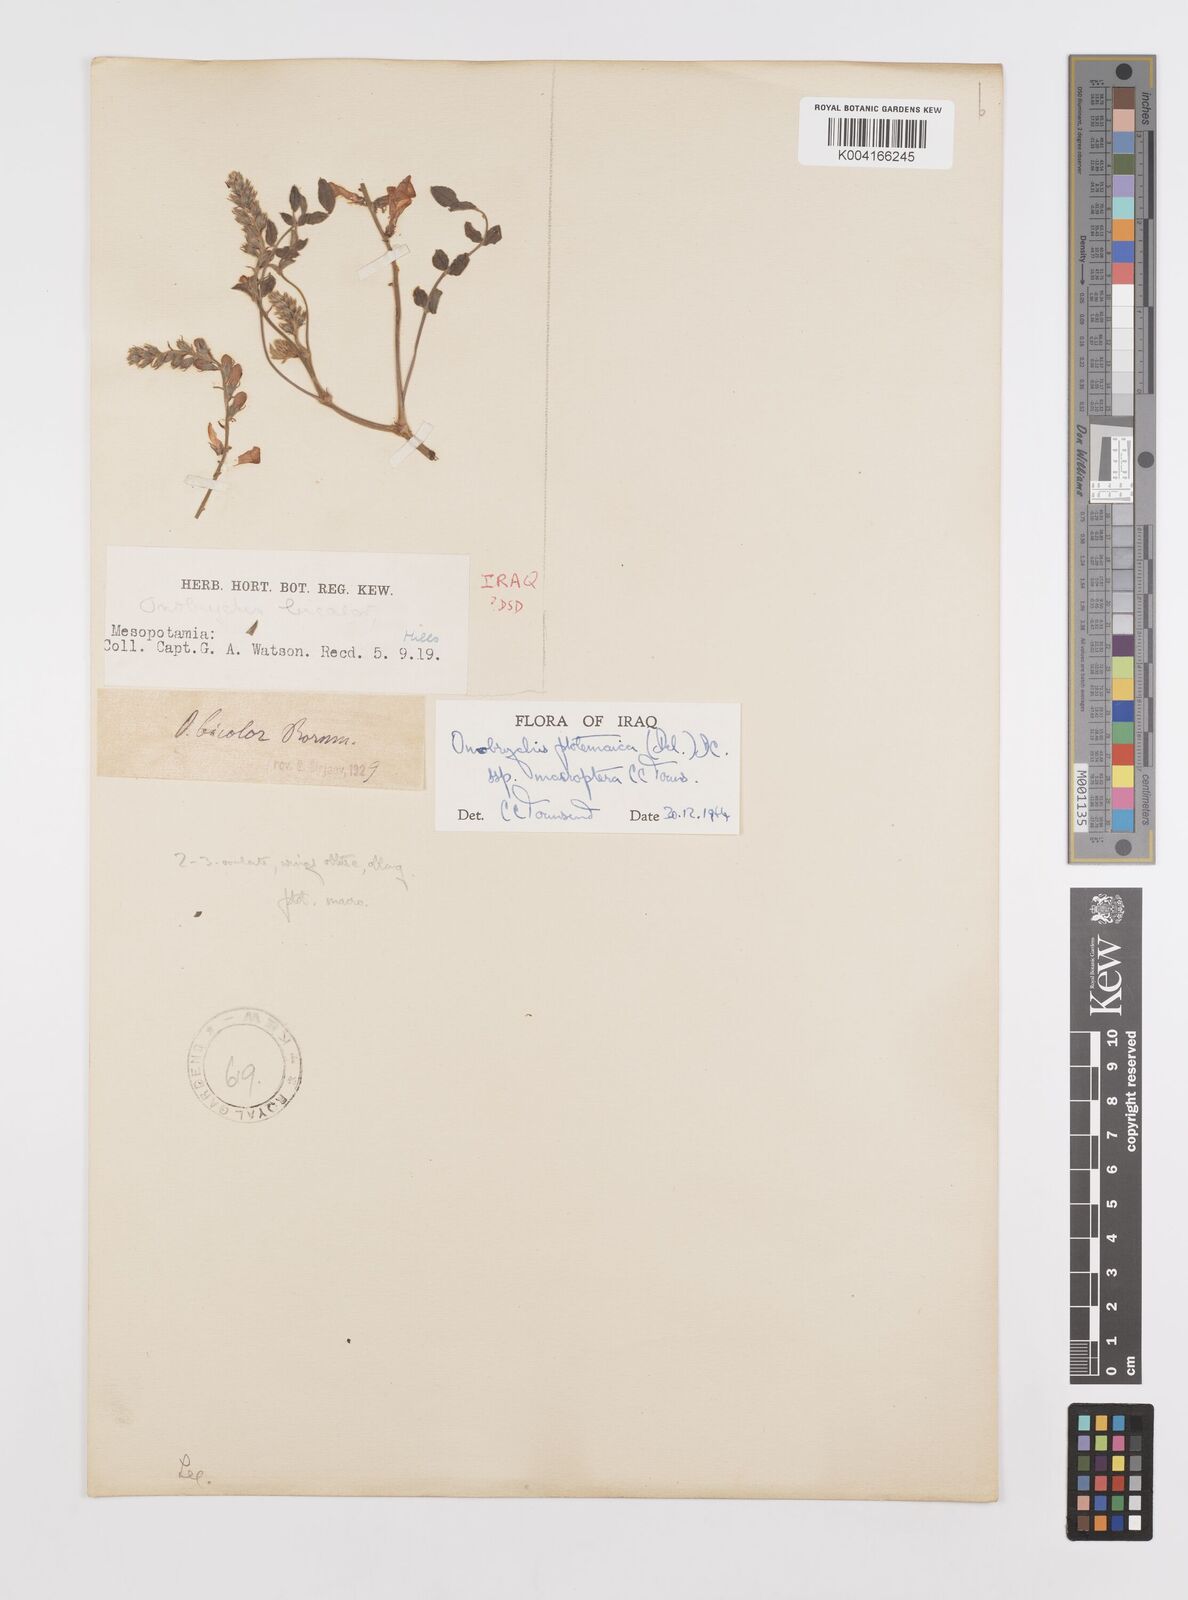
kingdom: Plantae
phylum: Tracheophyta
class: Magnoliopsida
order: Fabales
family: Fabaceae
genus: Onobrychis
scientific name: Onobrychis ptolemaica
